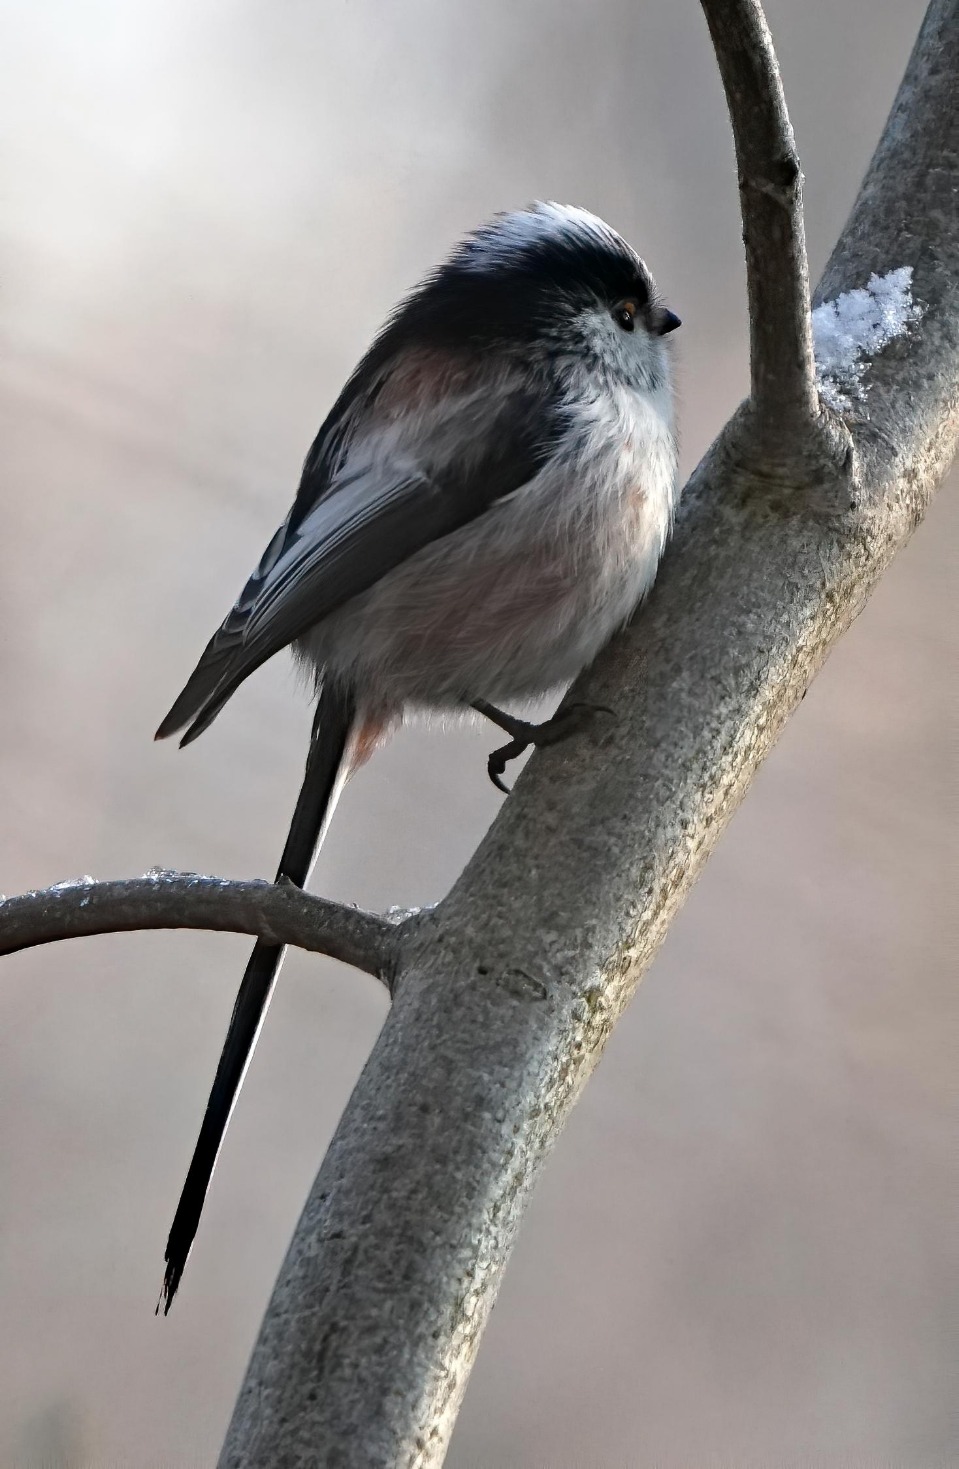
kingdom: Animalia
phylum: Chordata
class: Aves
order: Passeriformes
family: Aegithalidae
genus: Aegithalos
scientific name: Aegithalos caudatus
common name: Halemejse
